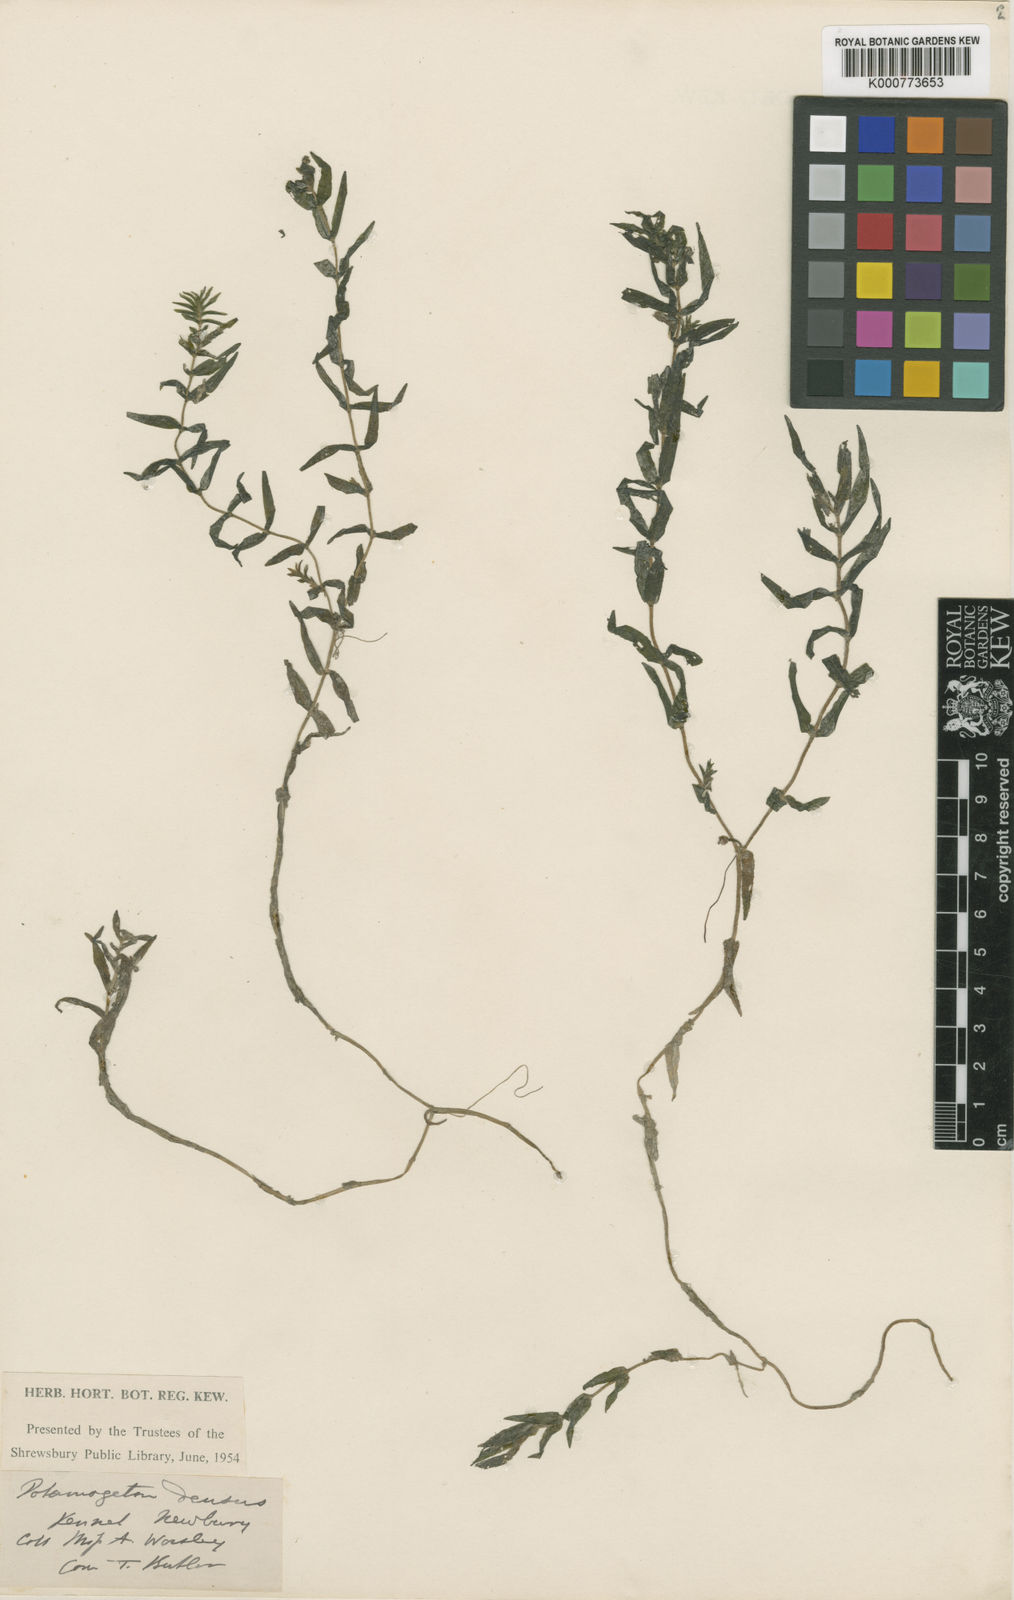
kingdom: Plantae
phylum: Tracheophyta
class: Liliopsida
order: Alismatales
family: Potamogetonaceae
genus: Groenlandia
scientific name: Groenlandia densa
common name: Opposite-leaved pondweed
